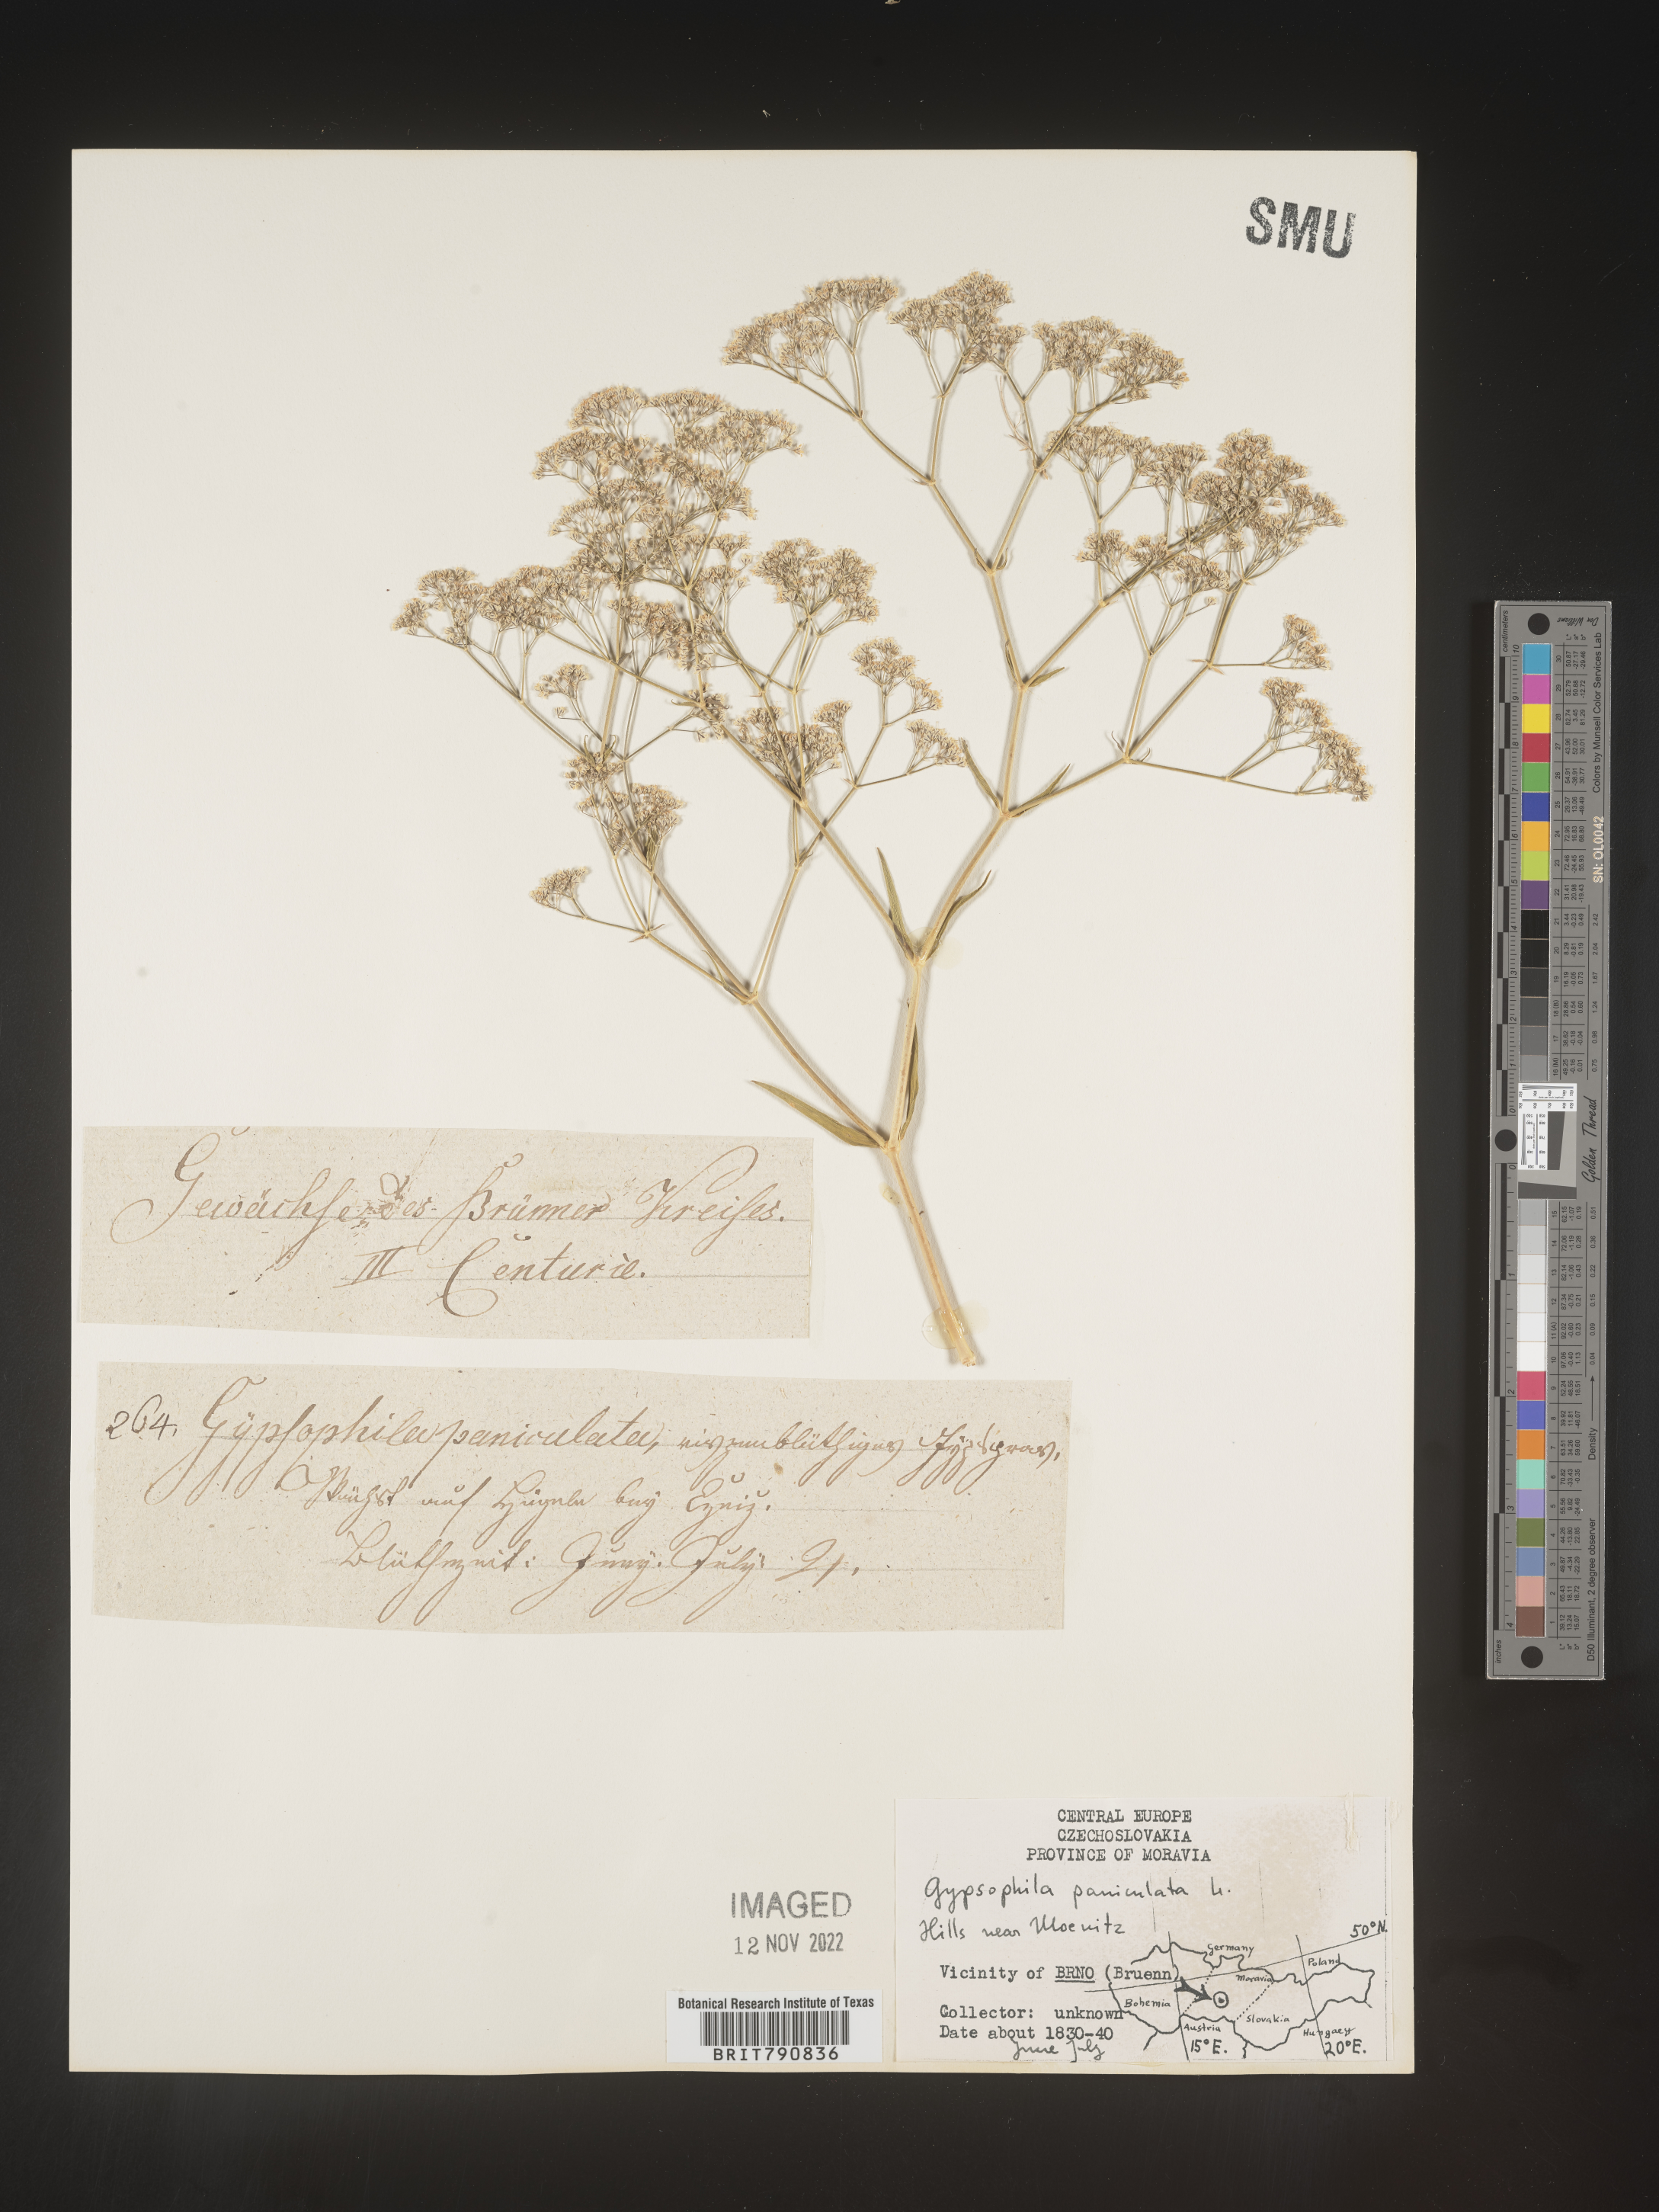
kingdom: Plantae
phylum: Tracheophyta
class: Magnoliopsida
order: Caryophyllales
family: Caryophyllaceae
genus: Gypsophila
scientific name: Gypsophila
